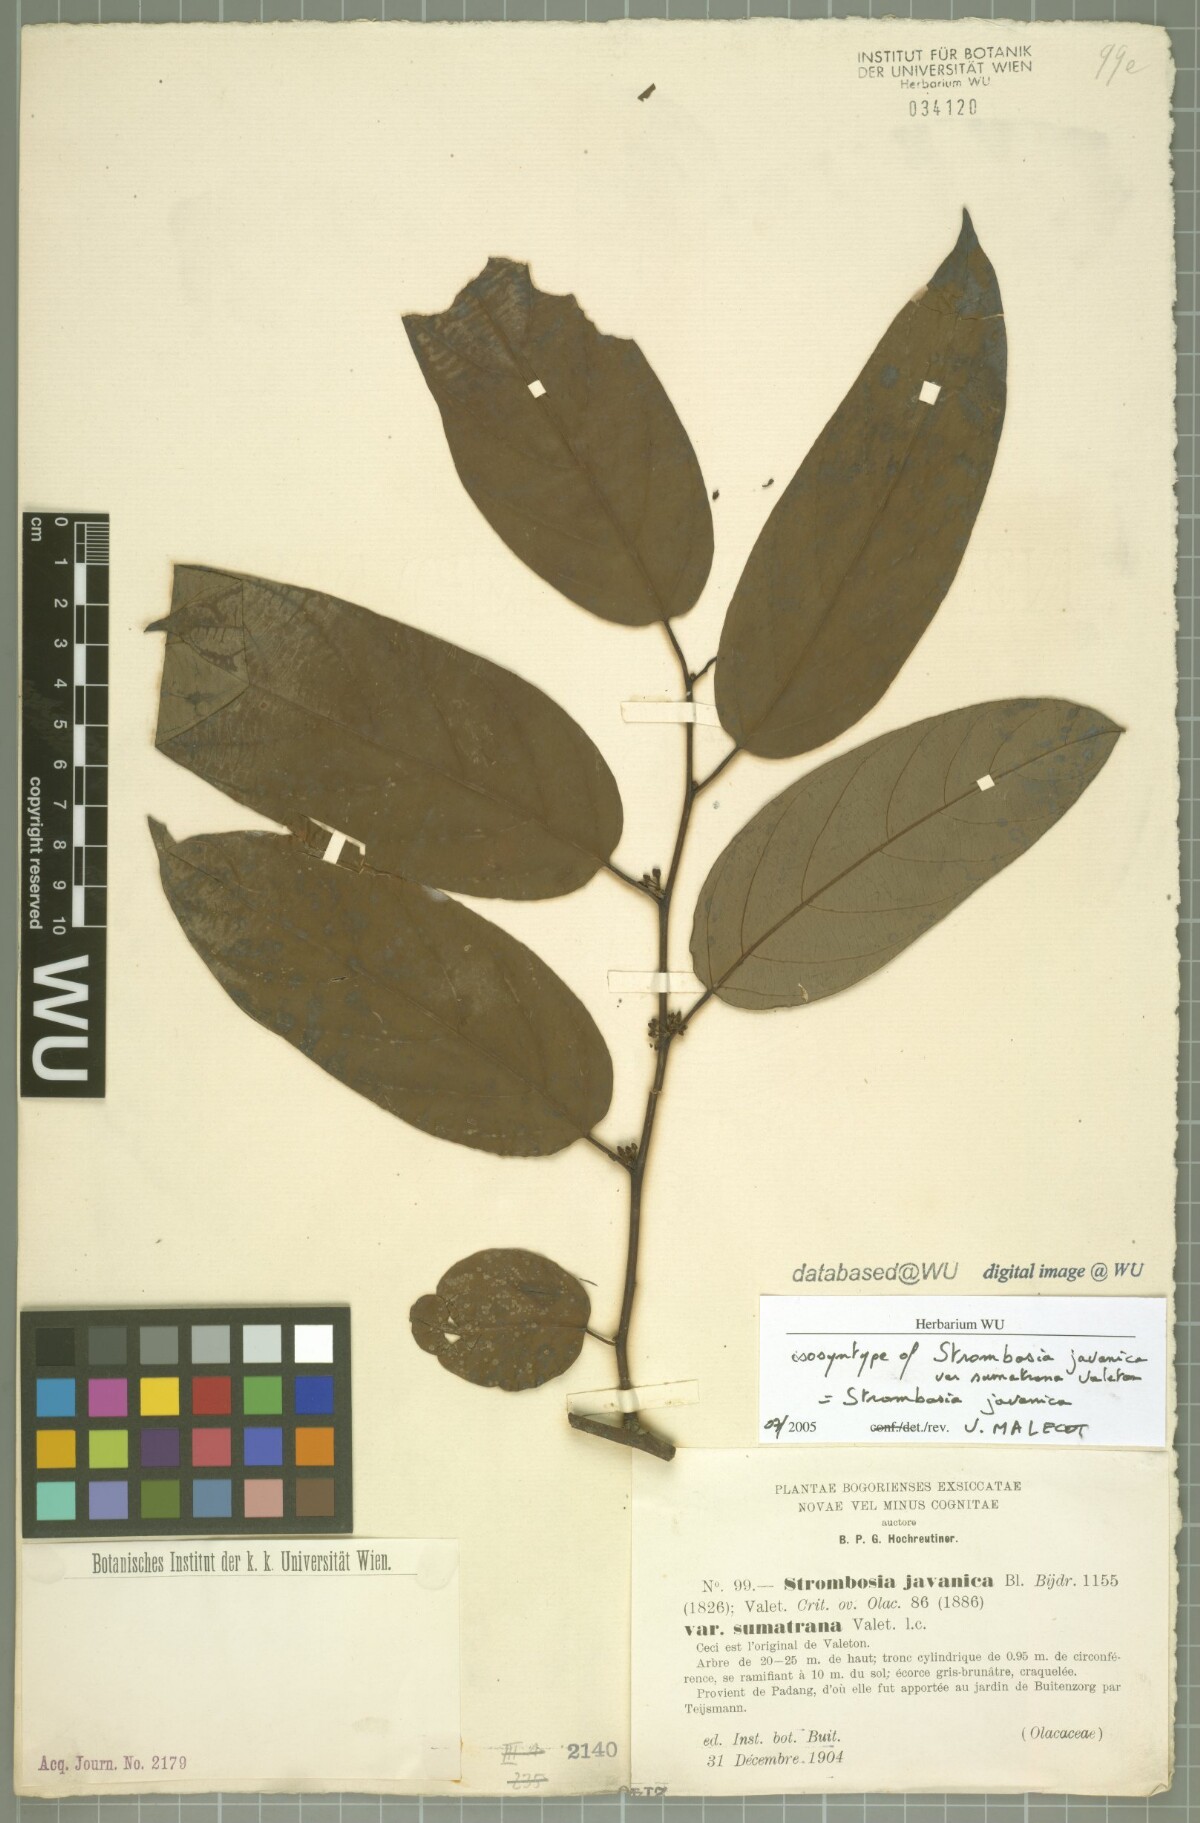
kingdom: Plantae
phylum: Tracheophyta
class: Magnoliopsida
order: Santalales
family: Strombosiaceae
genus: Strombosia
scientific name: Strombosia javanica
